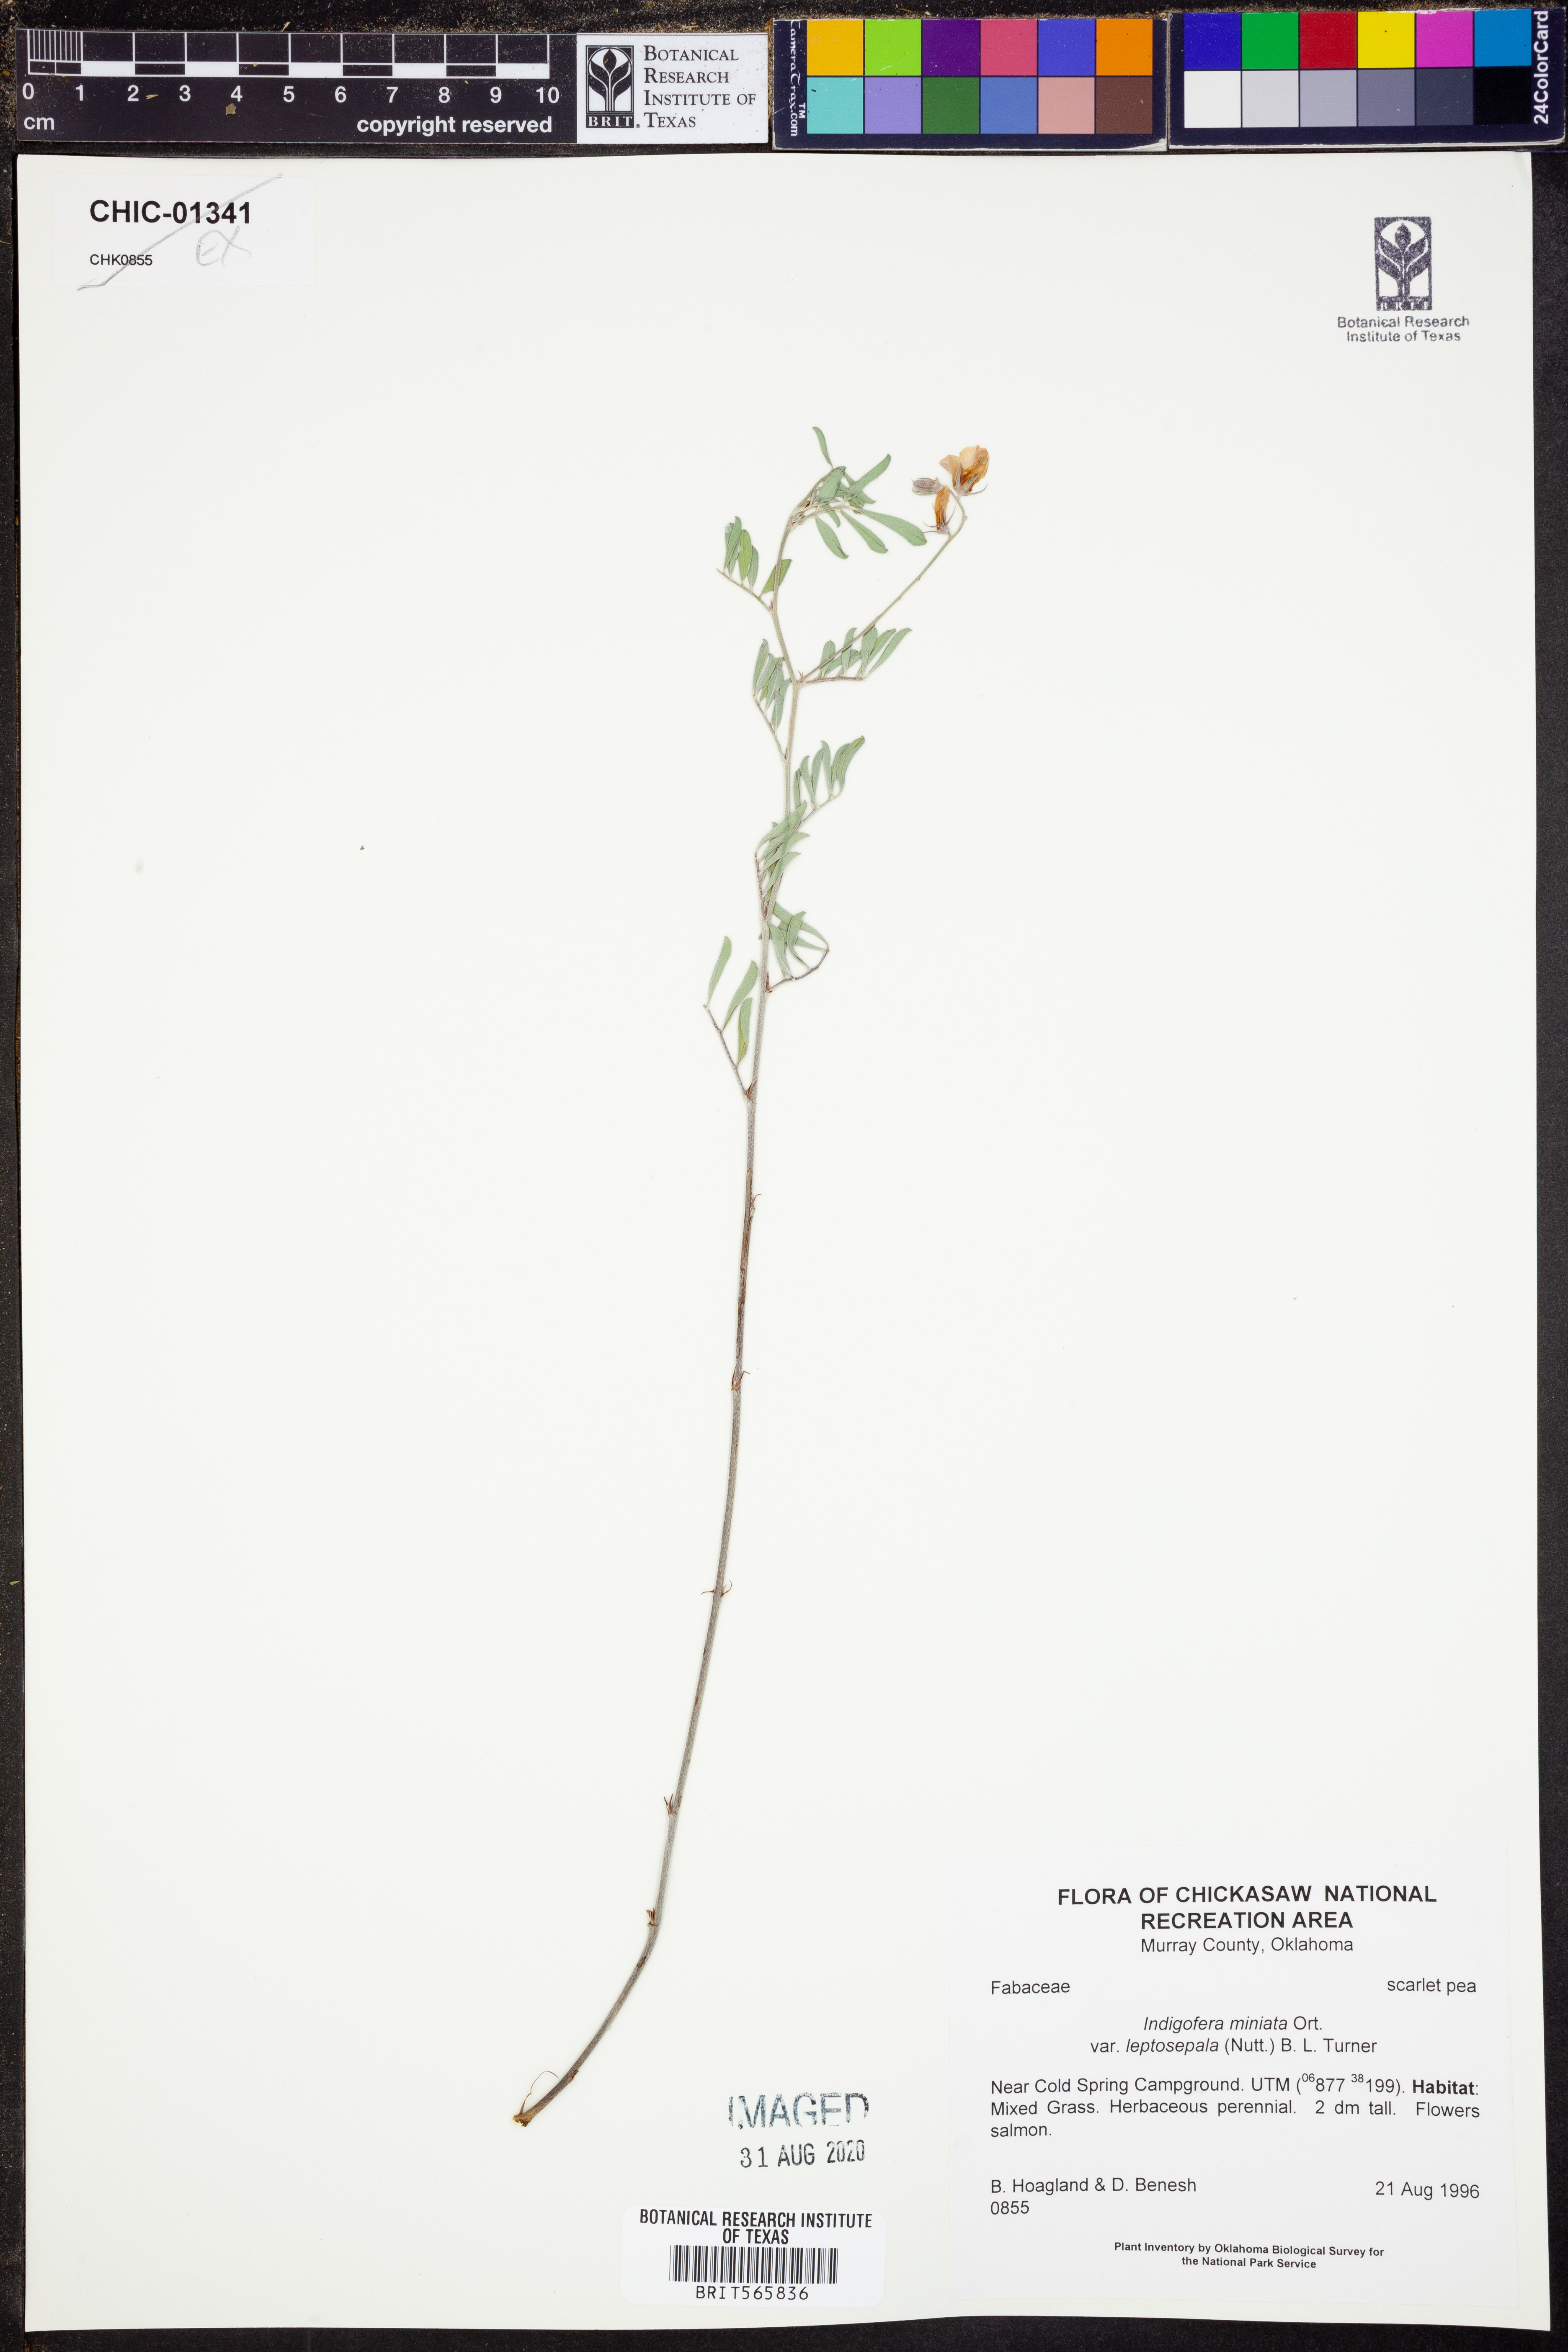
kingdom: Plantae
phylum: Tracheophyta
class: Magnoliopsida
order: Fabales
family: Fabaceae
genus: Indigofera
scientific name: Indigofera miniata
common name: Coast indigo
